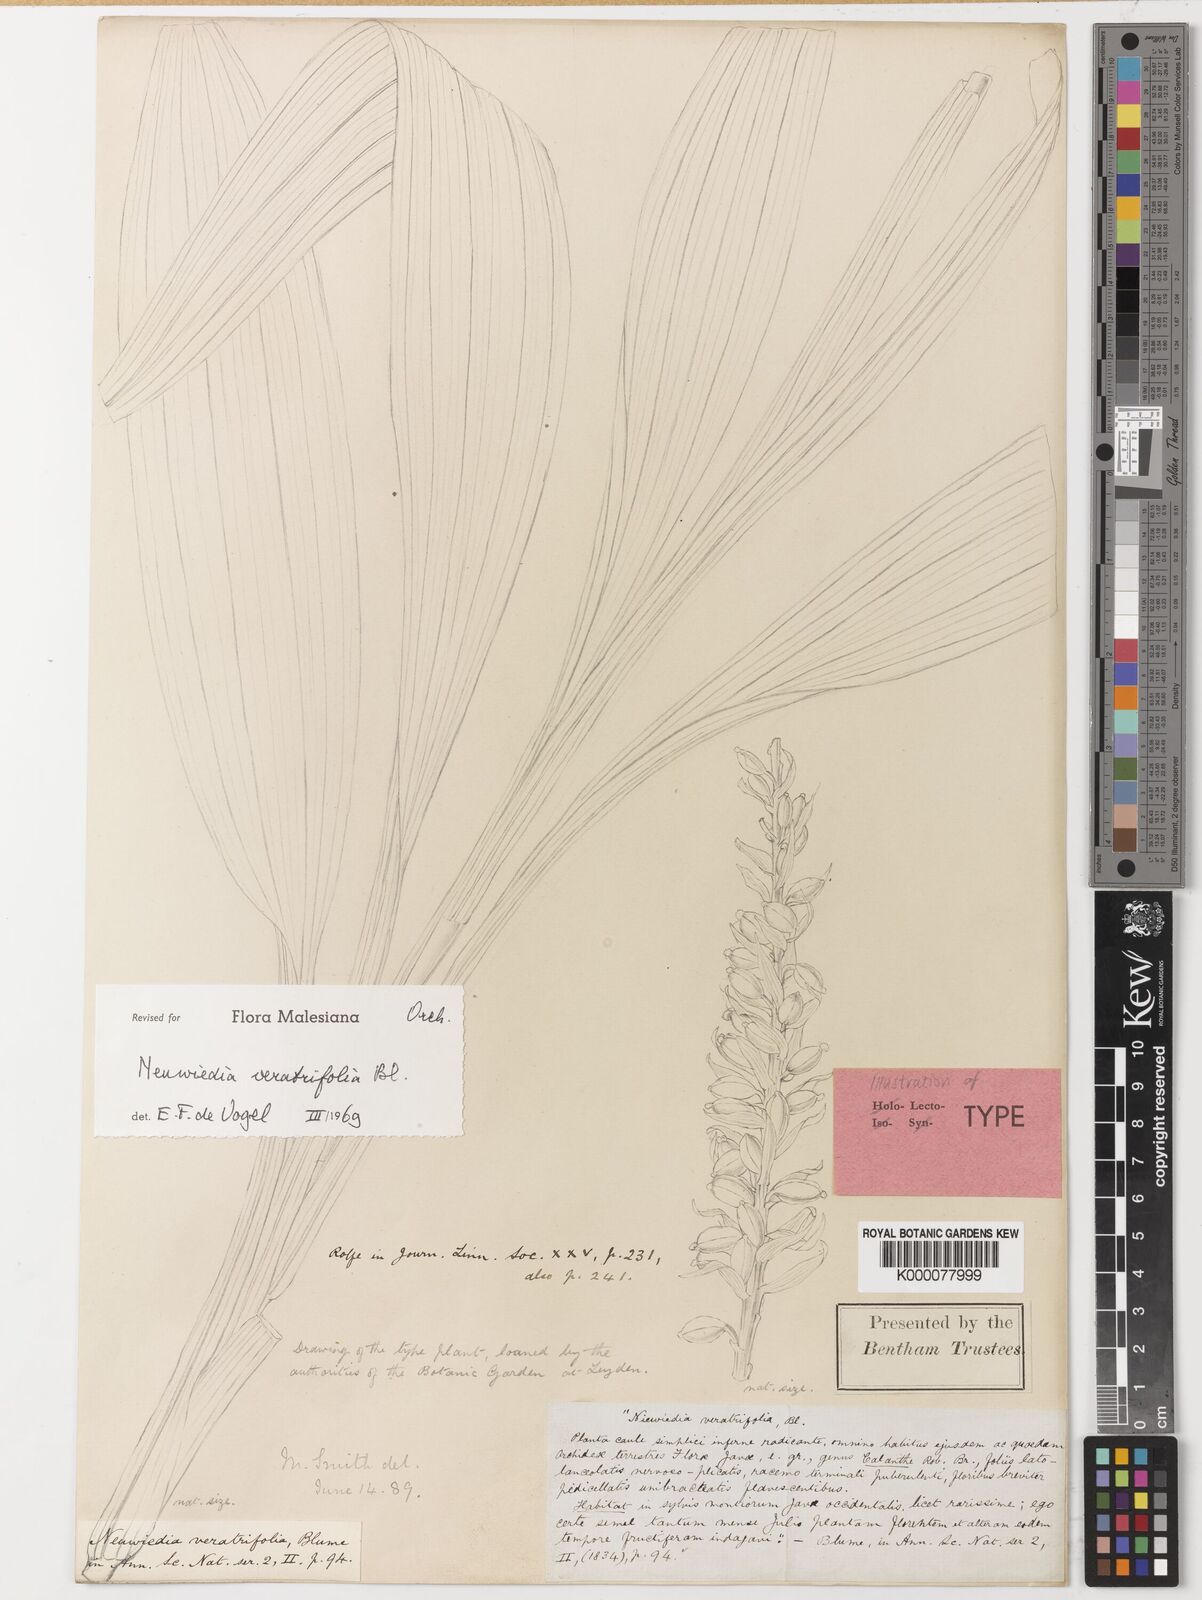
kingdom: Plantae
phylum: Tracheophyta
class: Liliopsida
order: Asparagales
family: Orchidaceae
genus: Neuwiedia
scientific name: Neuwiedia veratrifolia
